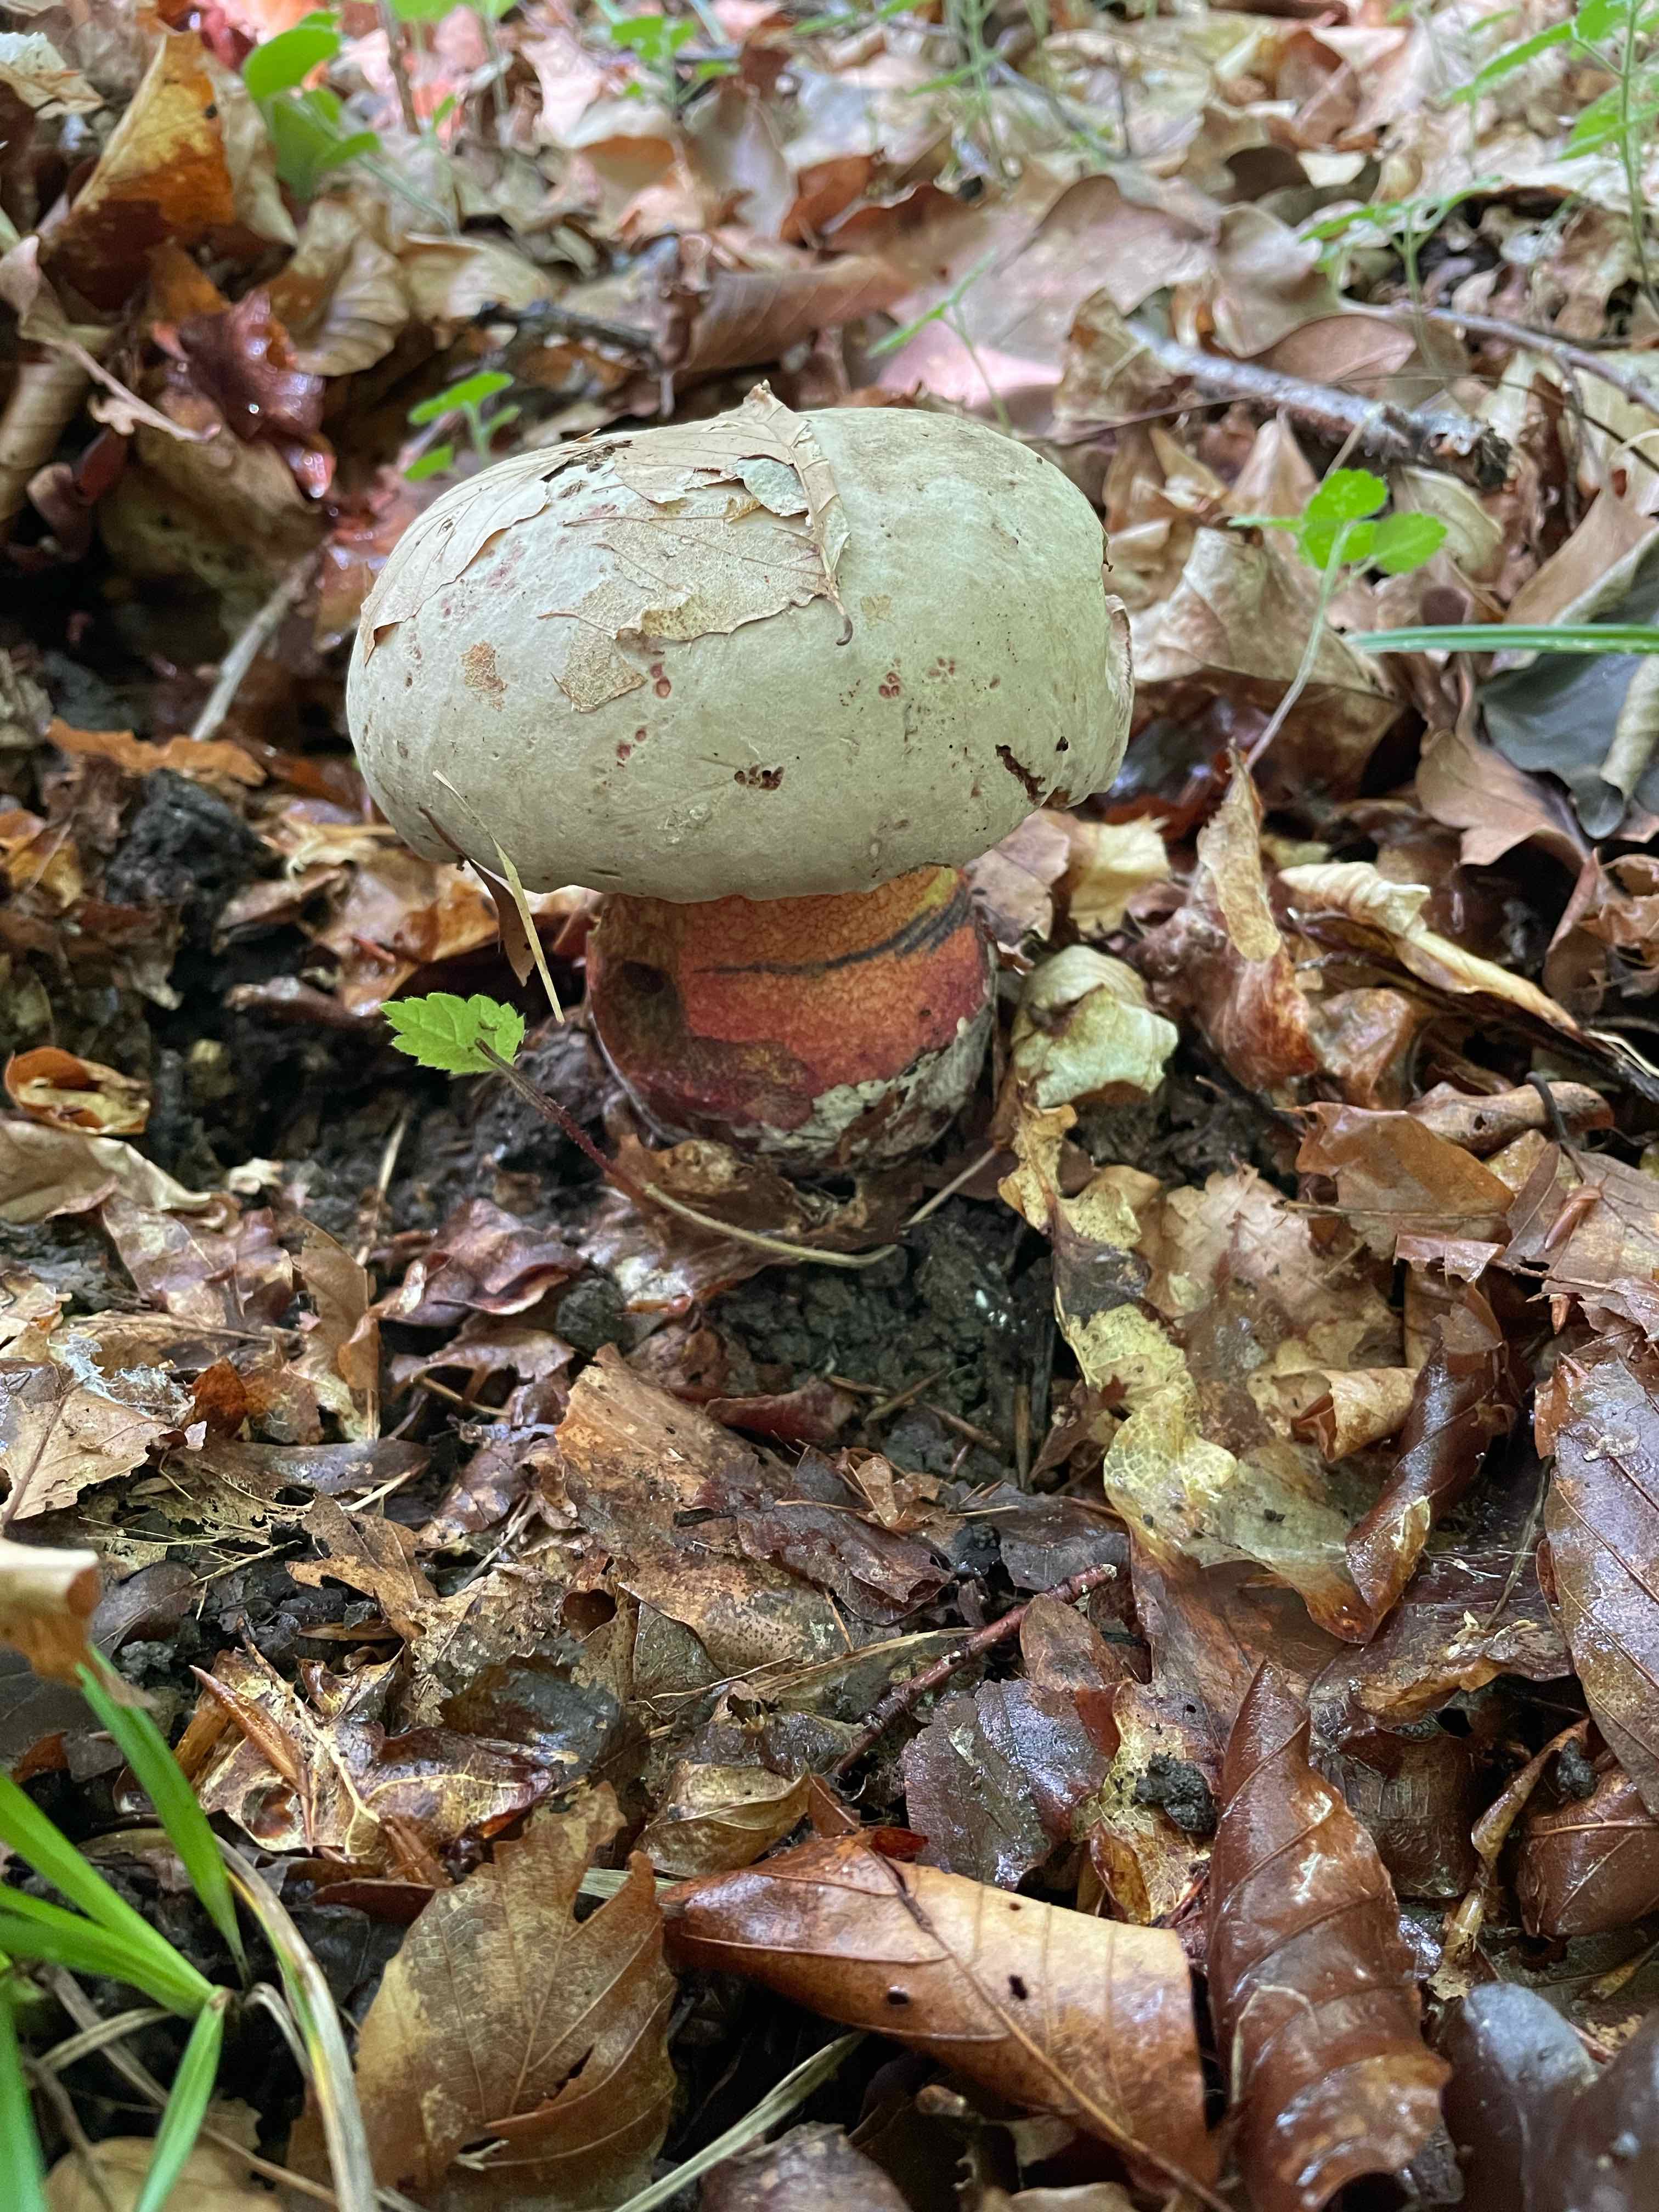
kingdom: Fungi
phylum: Basidiomycota
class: Agaricomycetes
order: Boletales
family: Boletaceae
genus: Rubroboletus
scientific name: Rubroboletus legaliae
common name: djævle-rørhat
